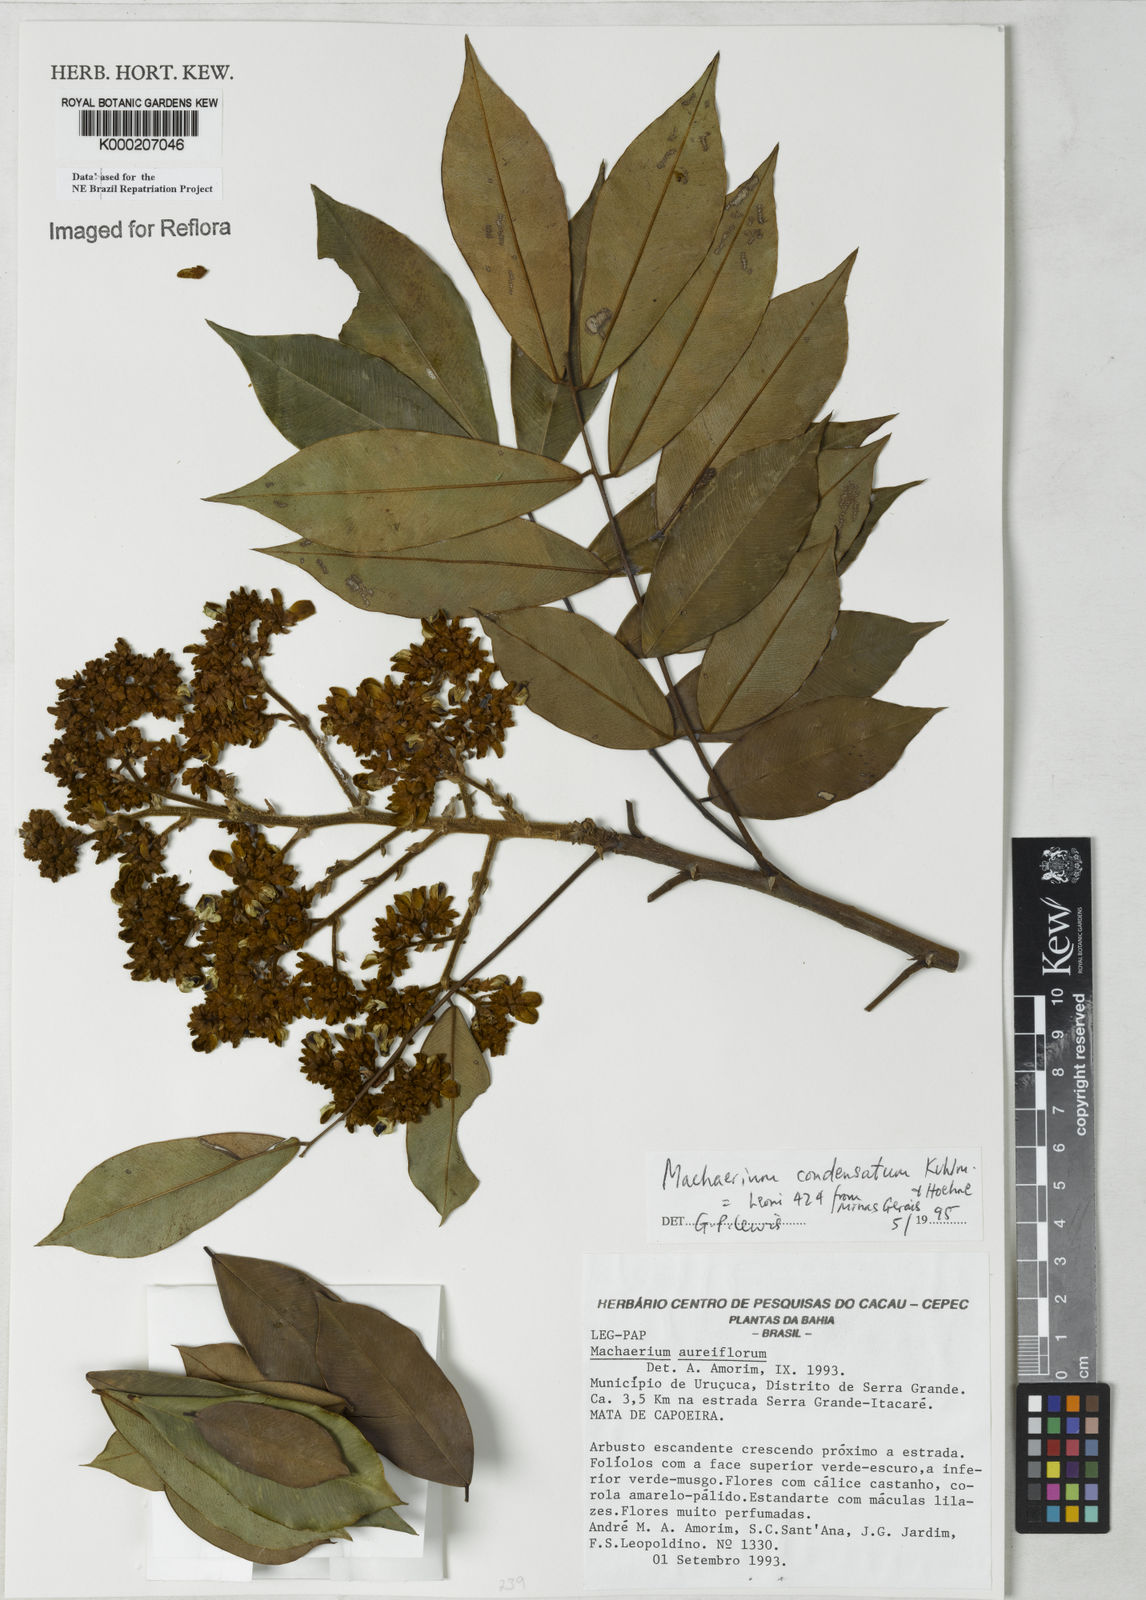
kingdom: Plantae
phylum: Tracheophyta
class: Magnoliopsida
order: Fabales
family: Fabaceae
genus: Machaerium
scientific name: Machaerium condensatum
